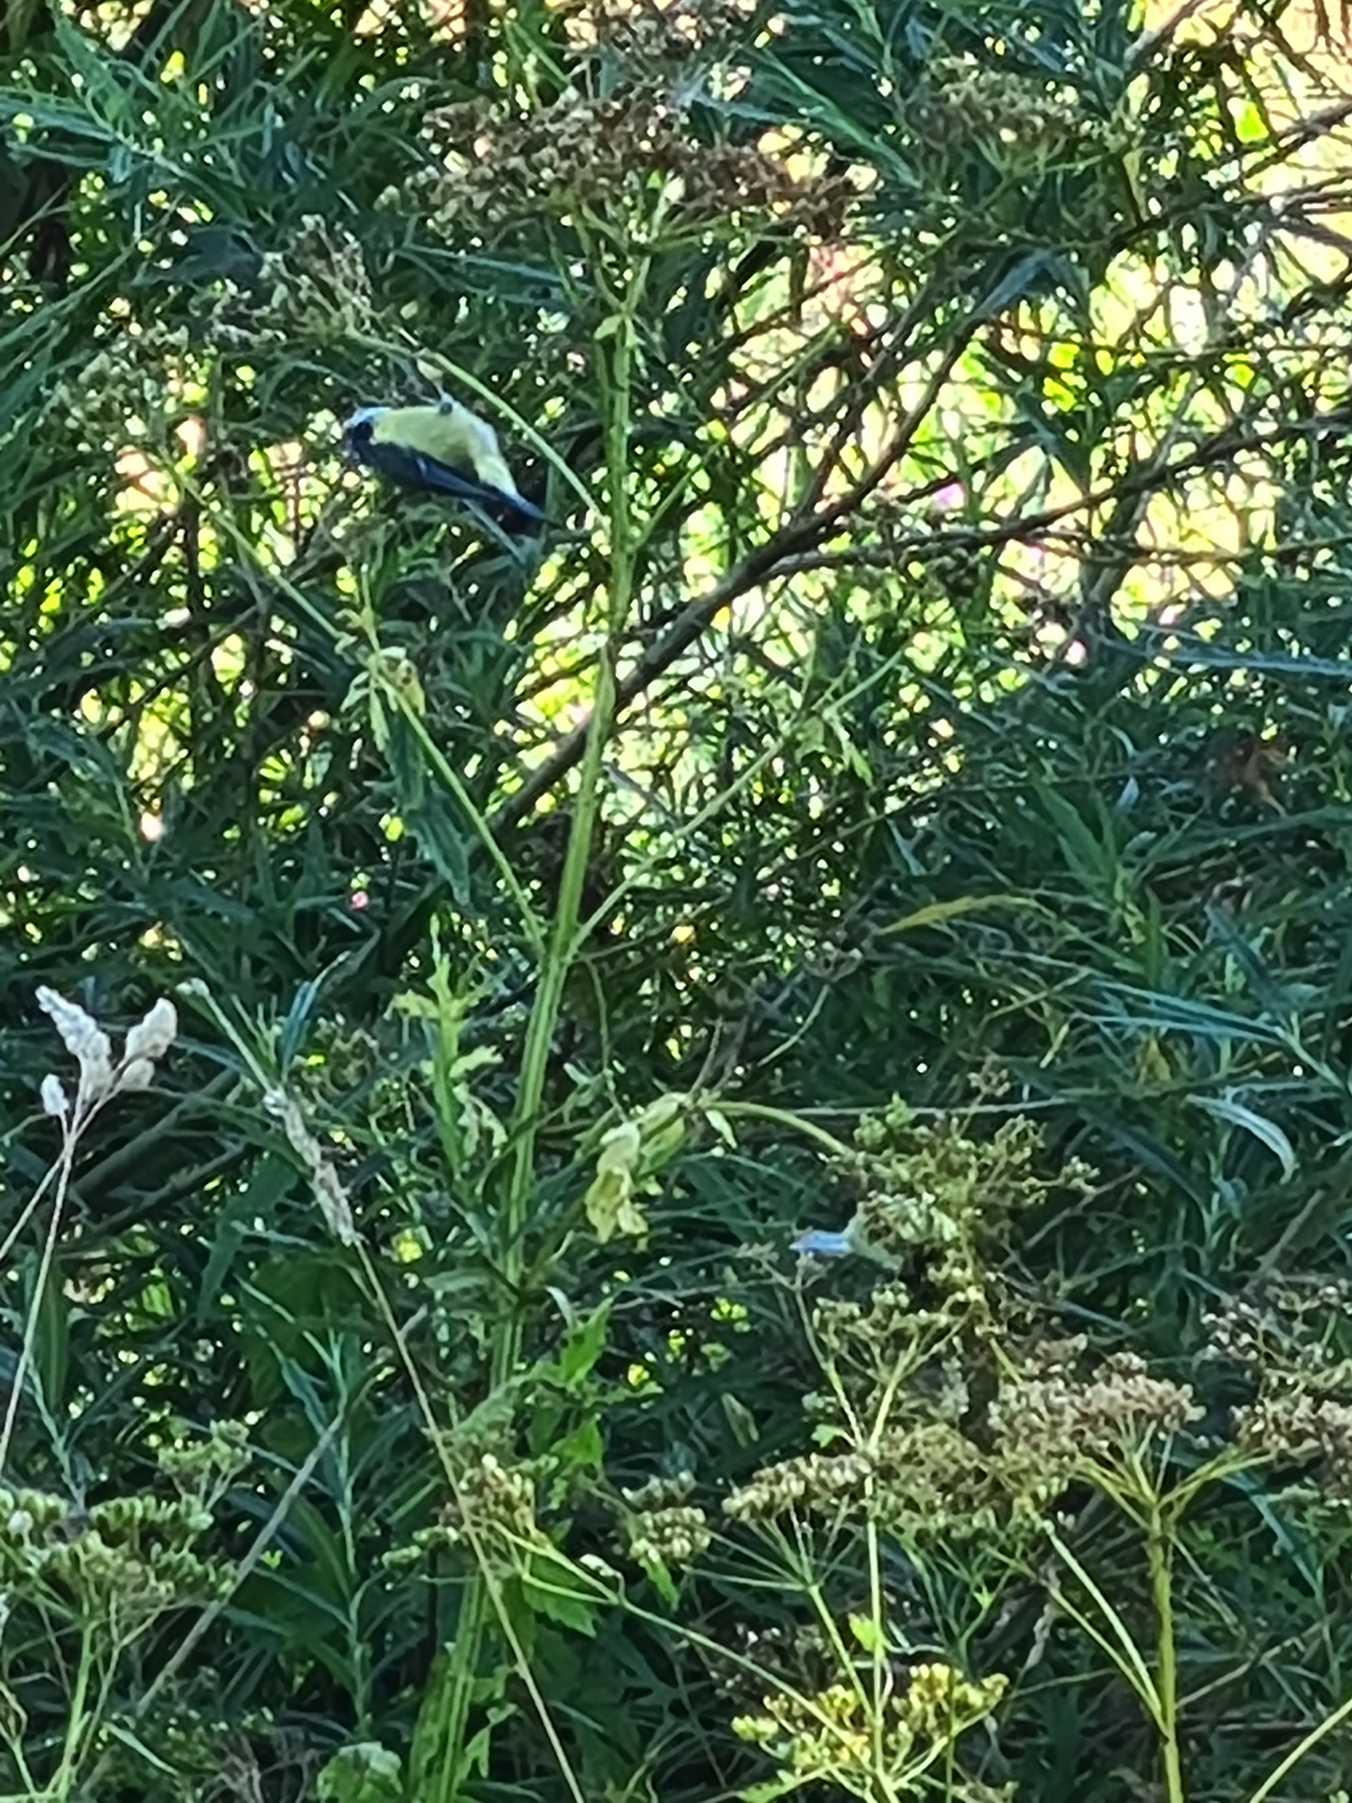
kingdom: Animalia
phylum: Chordata
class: Aves
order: Passeriformes
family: Paridae
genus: Cyanistes
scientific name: Cyanistes caeruleus
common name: Blåmejse
